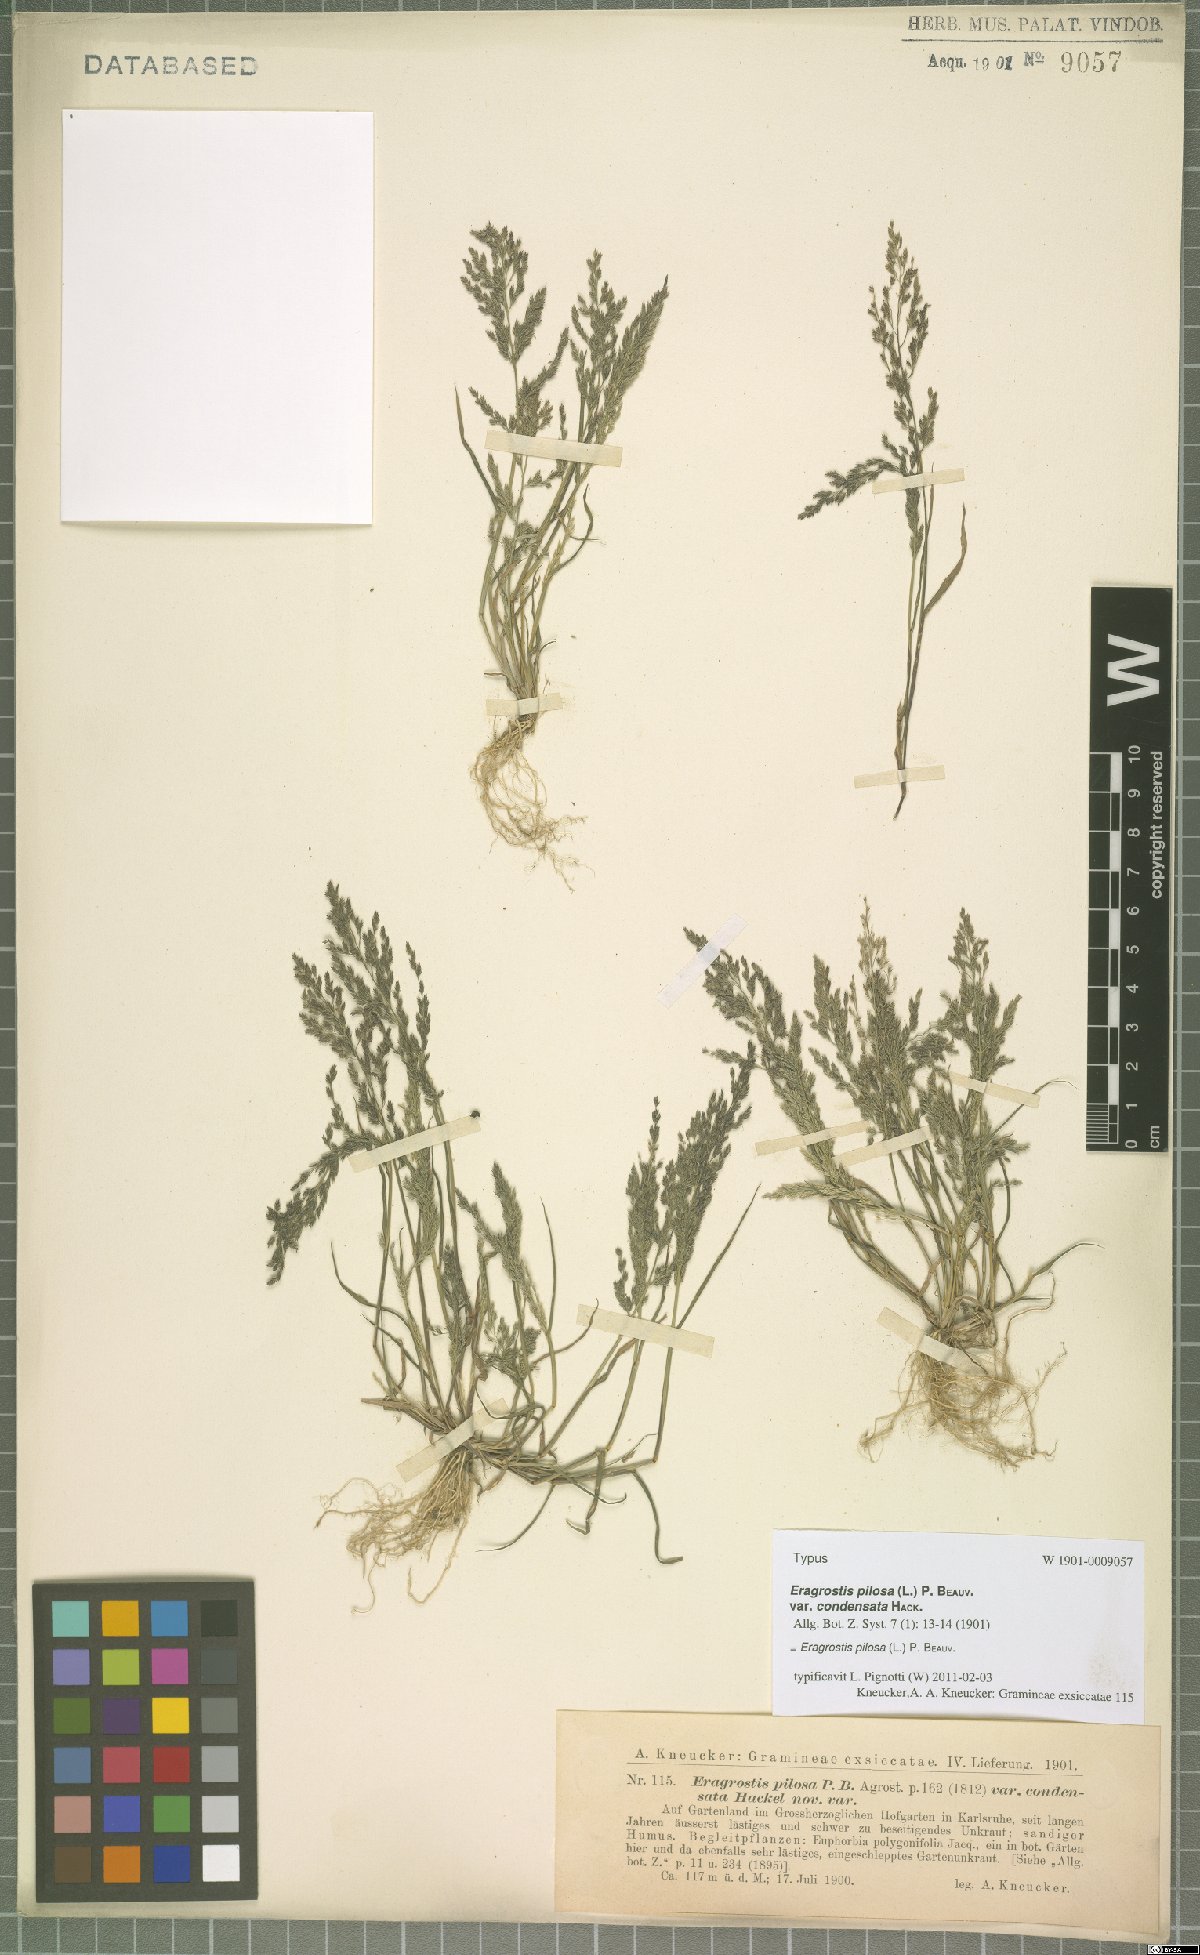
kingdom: Plantae
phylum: Tracheophyta
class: Liliopsida
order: Poales
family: Poaceae
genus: Eragrostis
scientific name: Eragrostis pilosa
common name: Indian lovegrass
